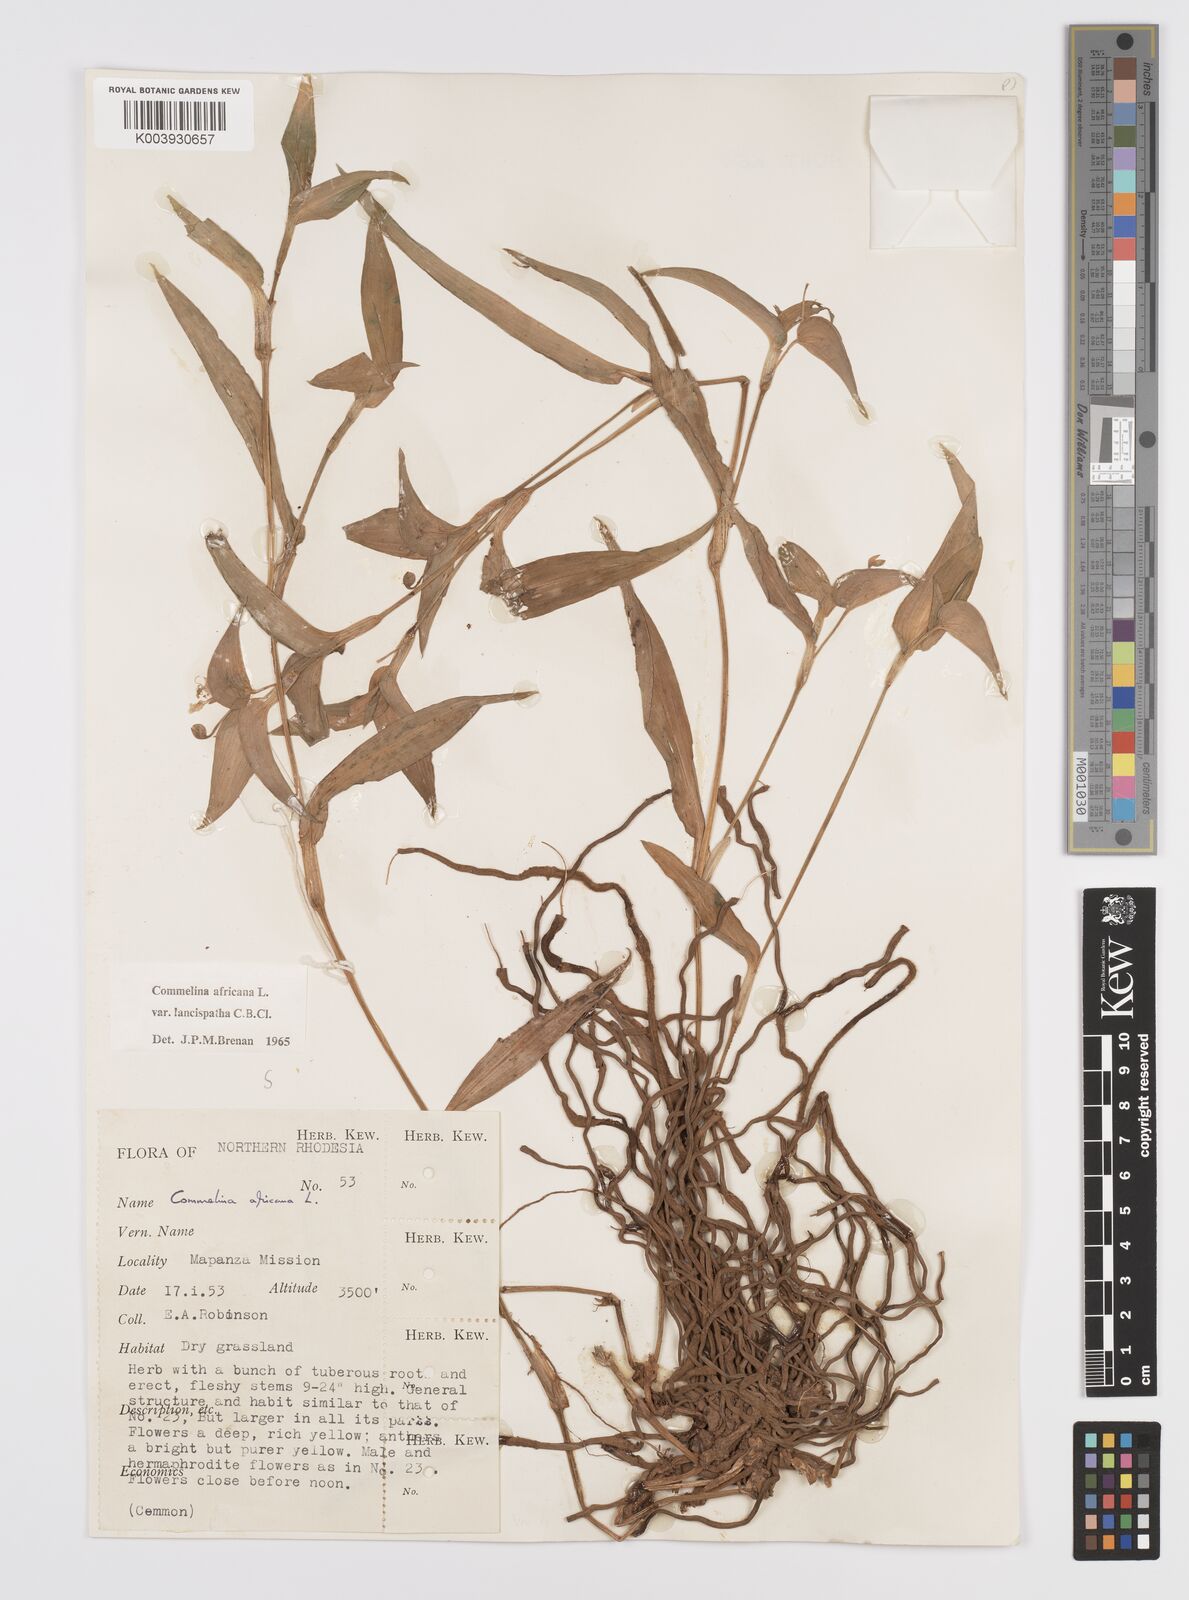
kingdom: Plantae
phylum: Tracheophyta
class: Liliopsida
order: Commelinales
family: Commelinaceae
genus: Commelina
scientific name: Commelina africana
